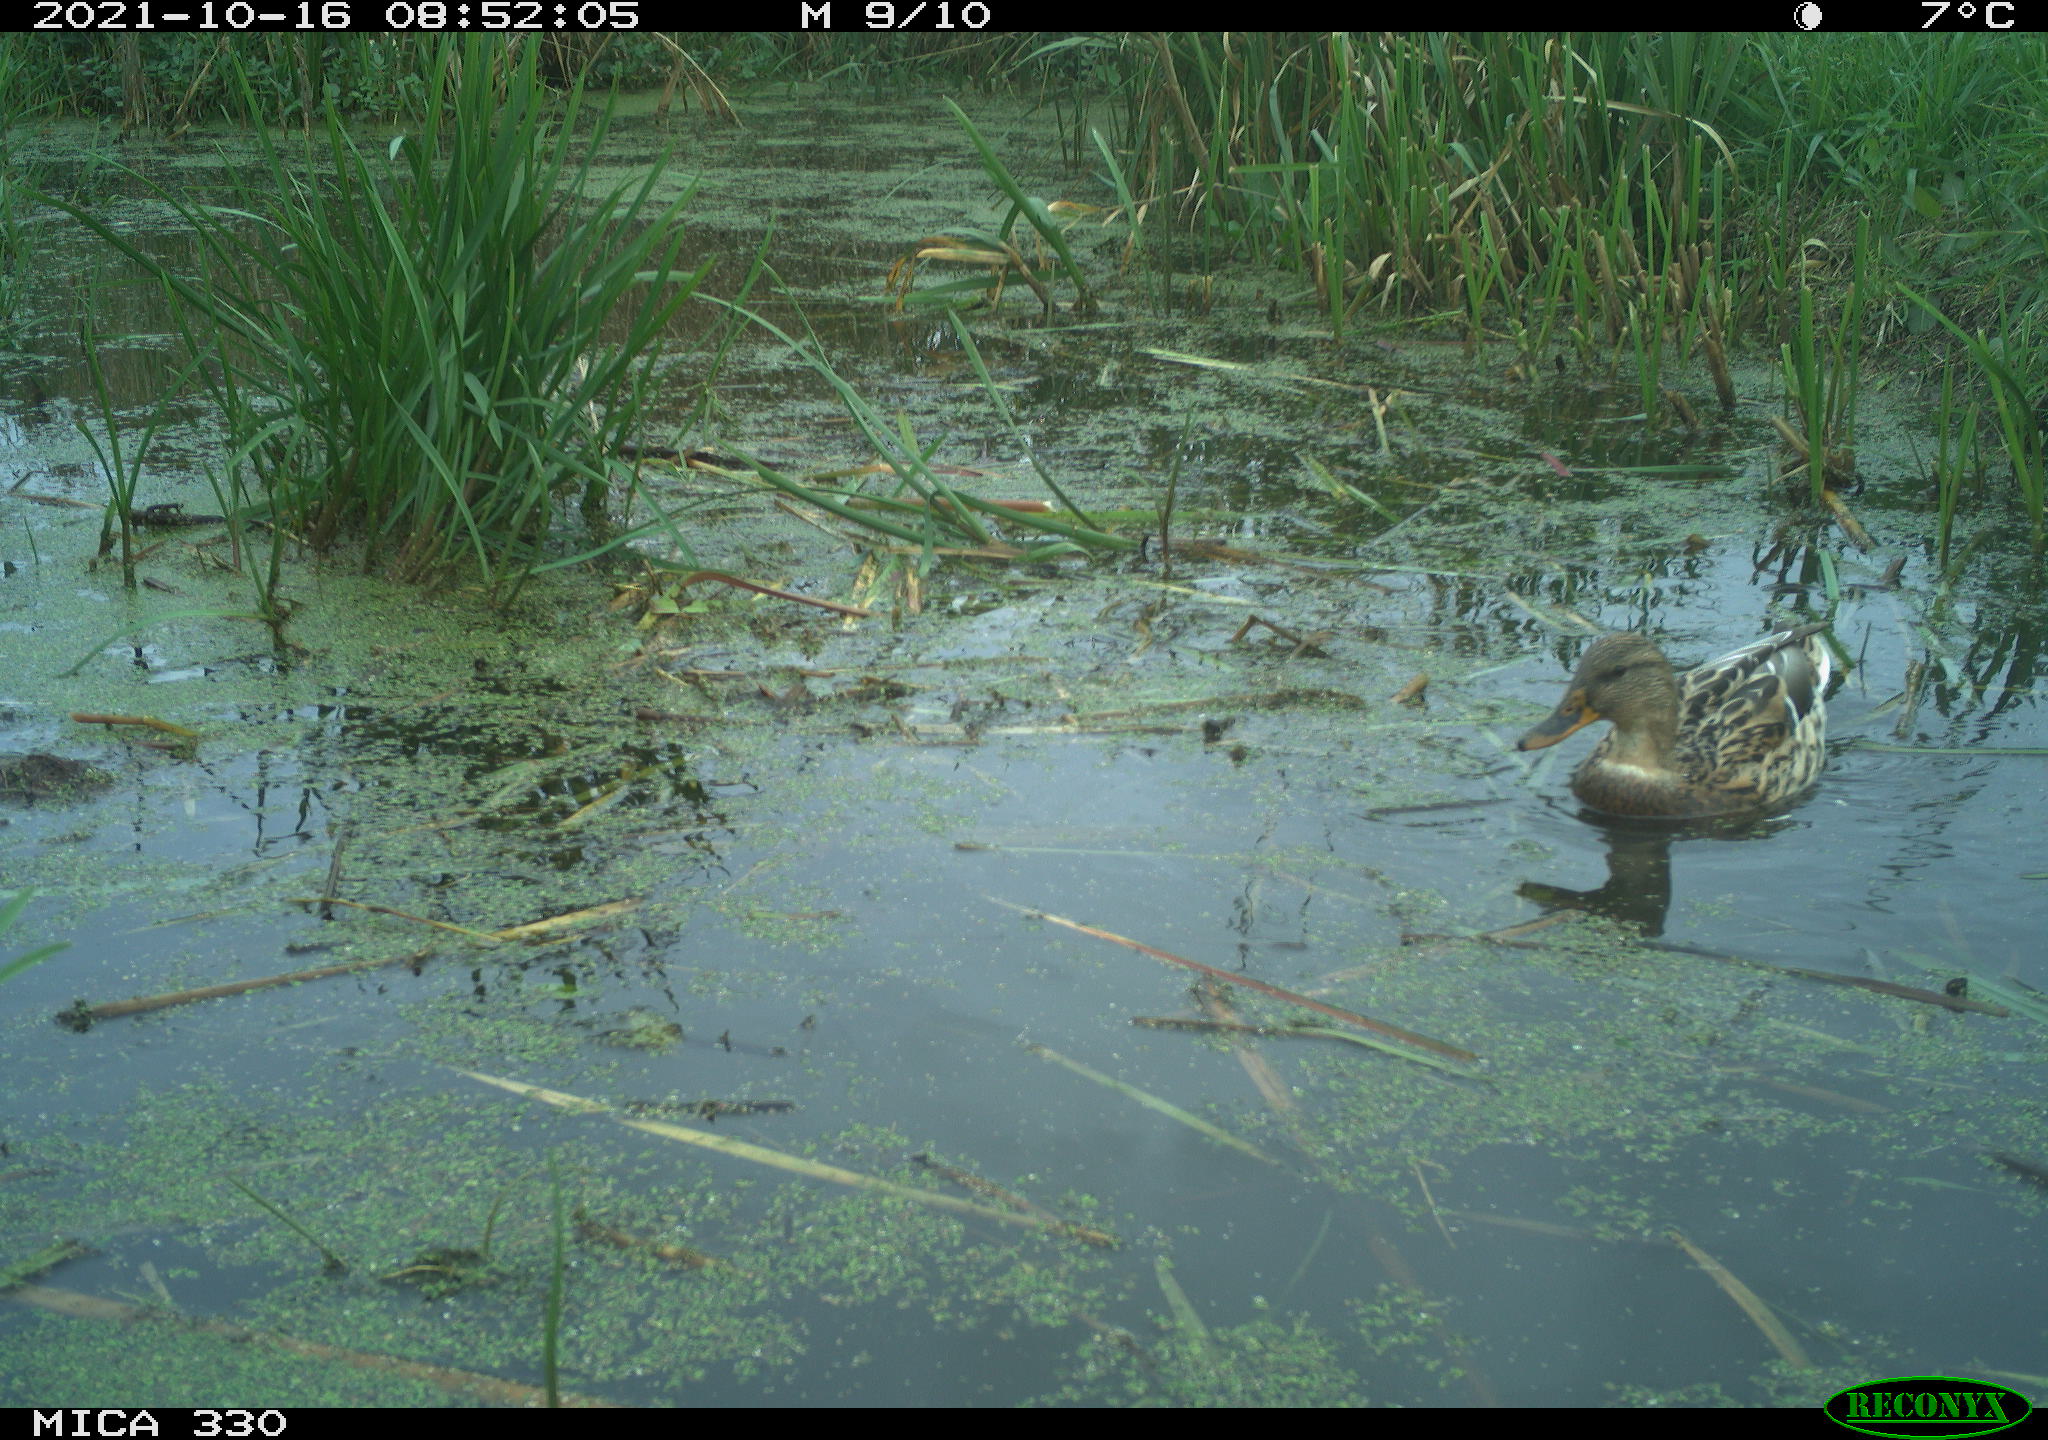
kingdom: Animalia
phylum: Chordata
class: Aves
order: Anseriformes
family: Anatidae
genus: Anas
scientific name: Anas platyrhynchos
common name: Mallard
